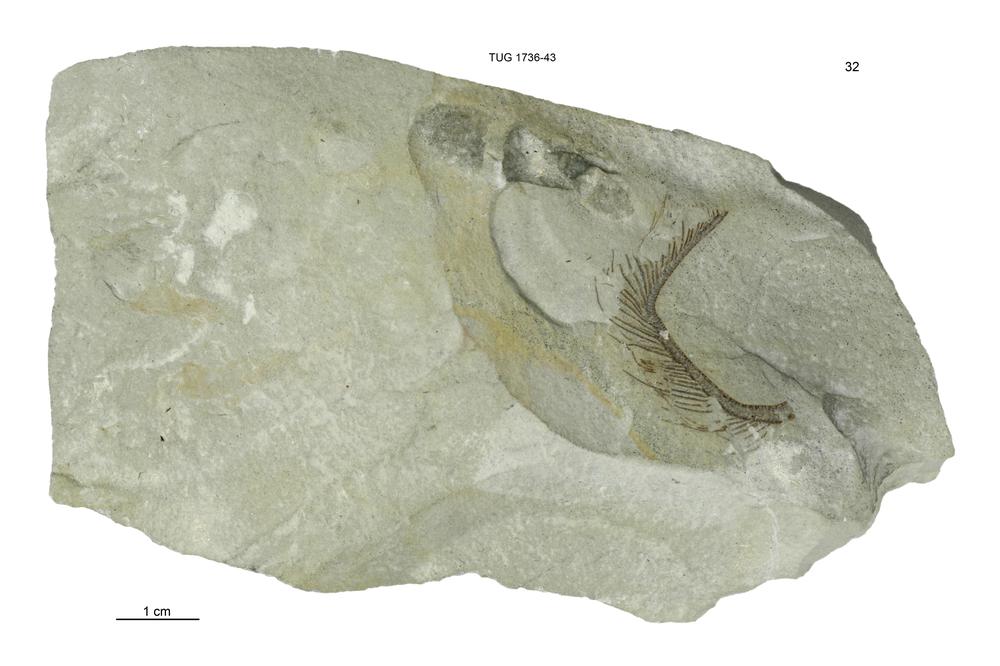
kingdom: Animalia
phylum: Echinodermata
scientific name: Echinodermata
